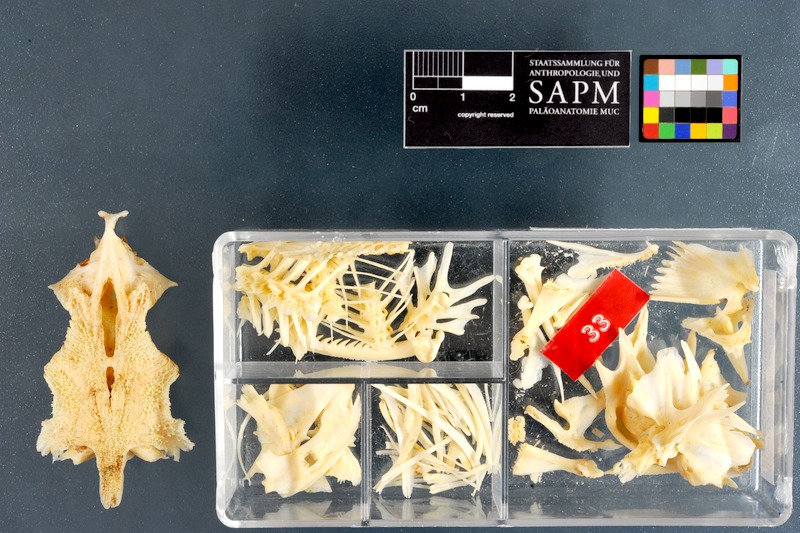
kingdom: Animalia
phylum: Chordata
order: Siluriformes
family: Claroteidae
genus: Chrysichthys
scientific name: Chrysichthys auratus
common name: Golden nile catfish
